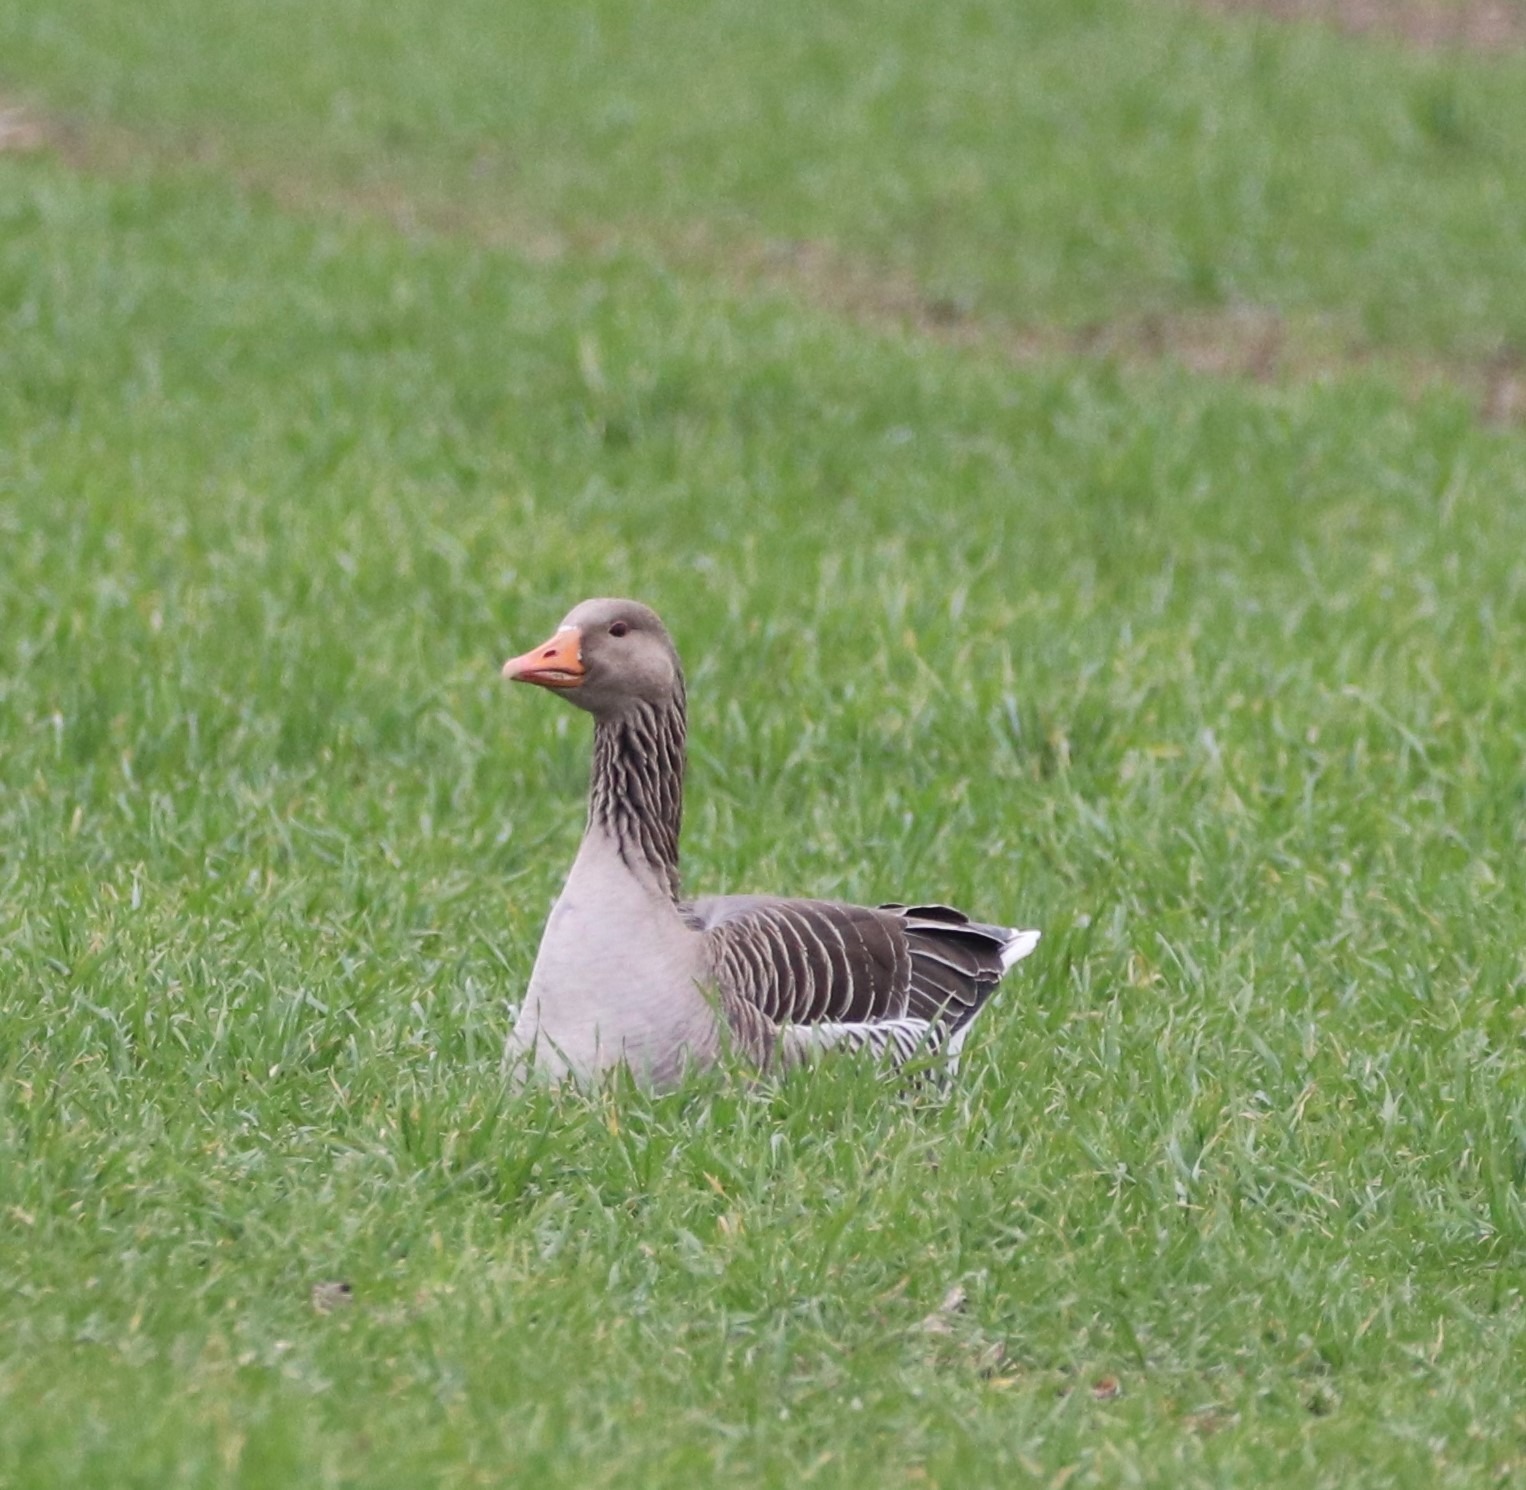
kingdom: Animalia
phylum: Chordata
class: Aves
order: Anseriformes
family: Anatidae
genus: Anser
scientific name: Anser anser
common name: Grågås
